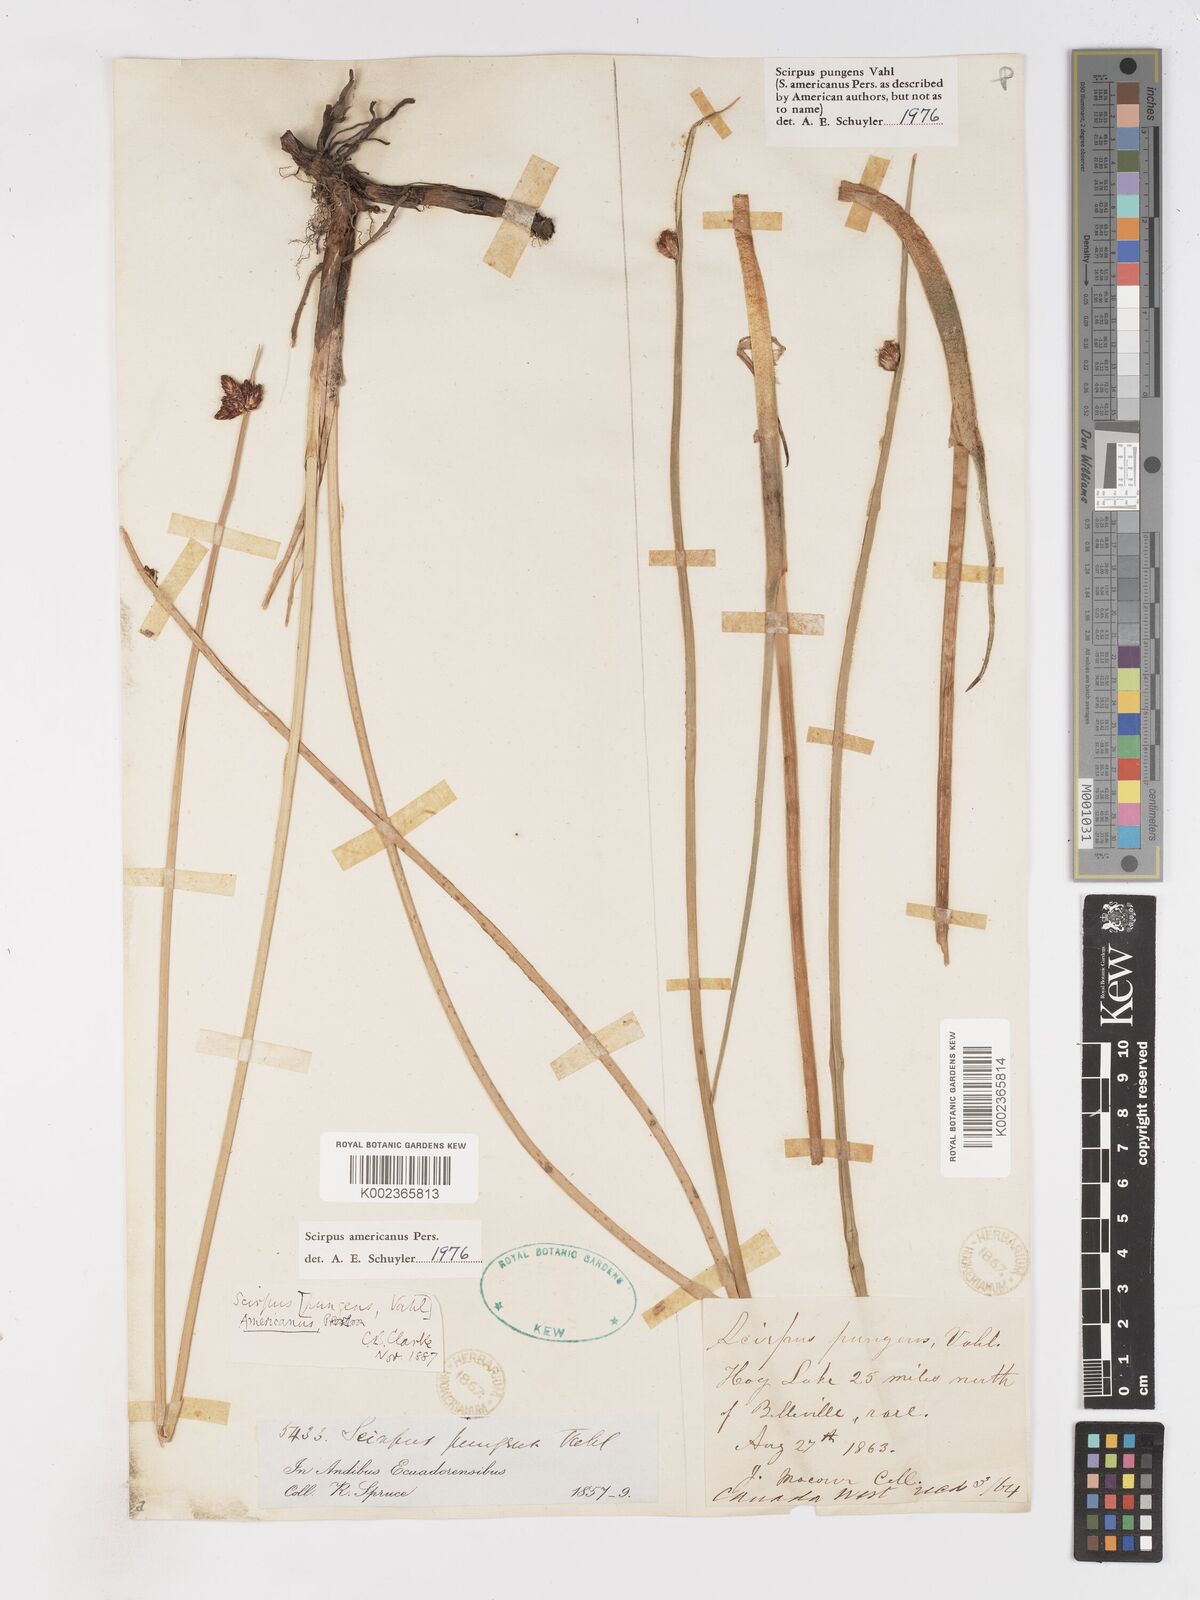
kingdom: Plantae
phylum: Tracheophyta
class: Liliopsida
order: Poales
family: Cyperaceae
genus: Schoenoplectus
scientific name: Schoenoplectus pungens
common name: Sharp club-rush
